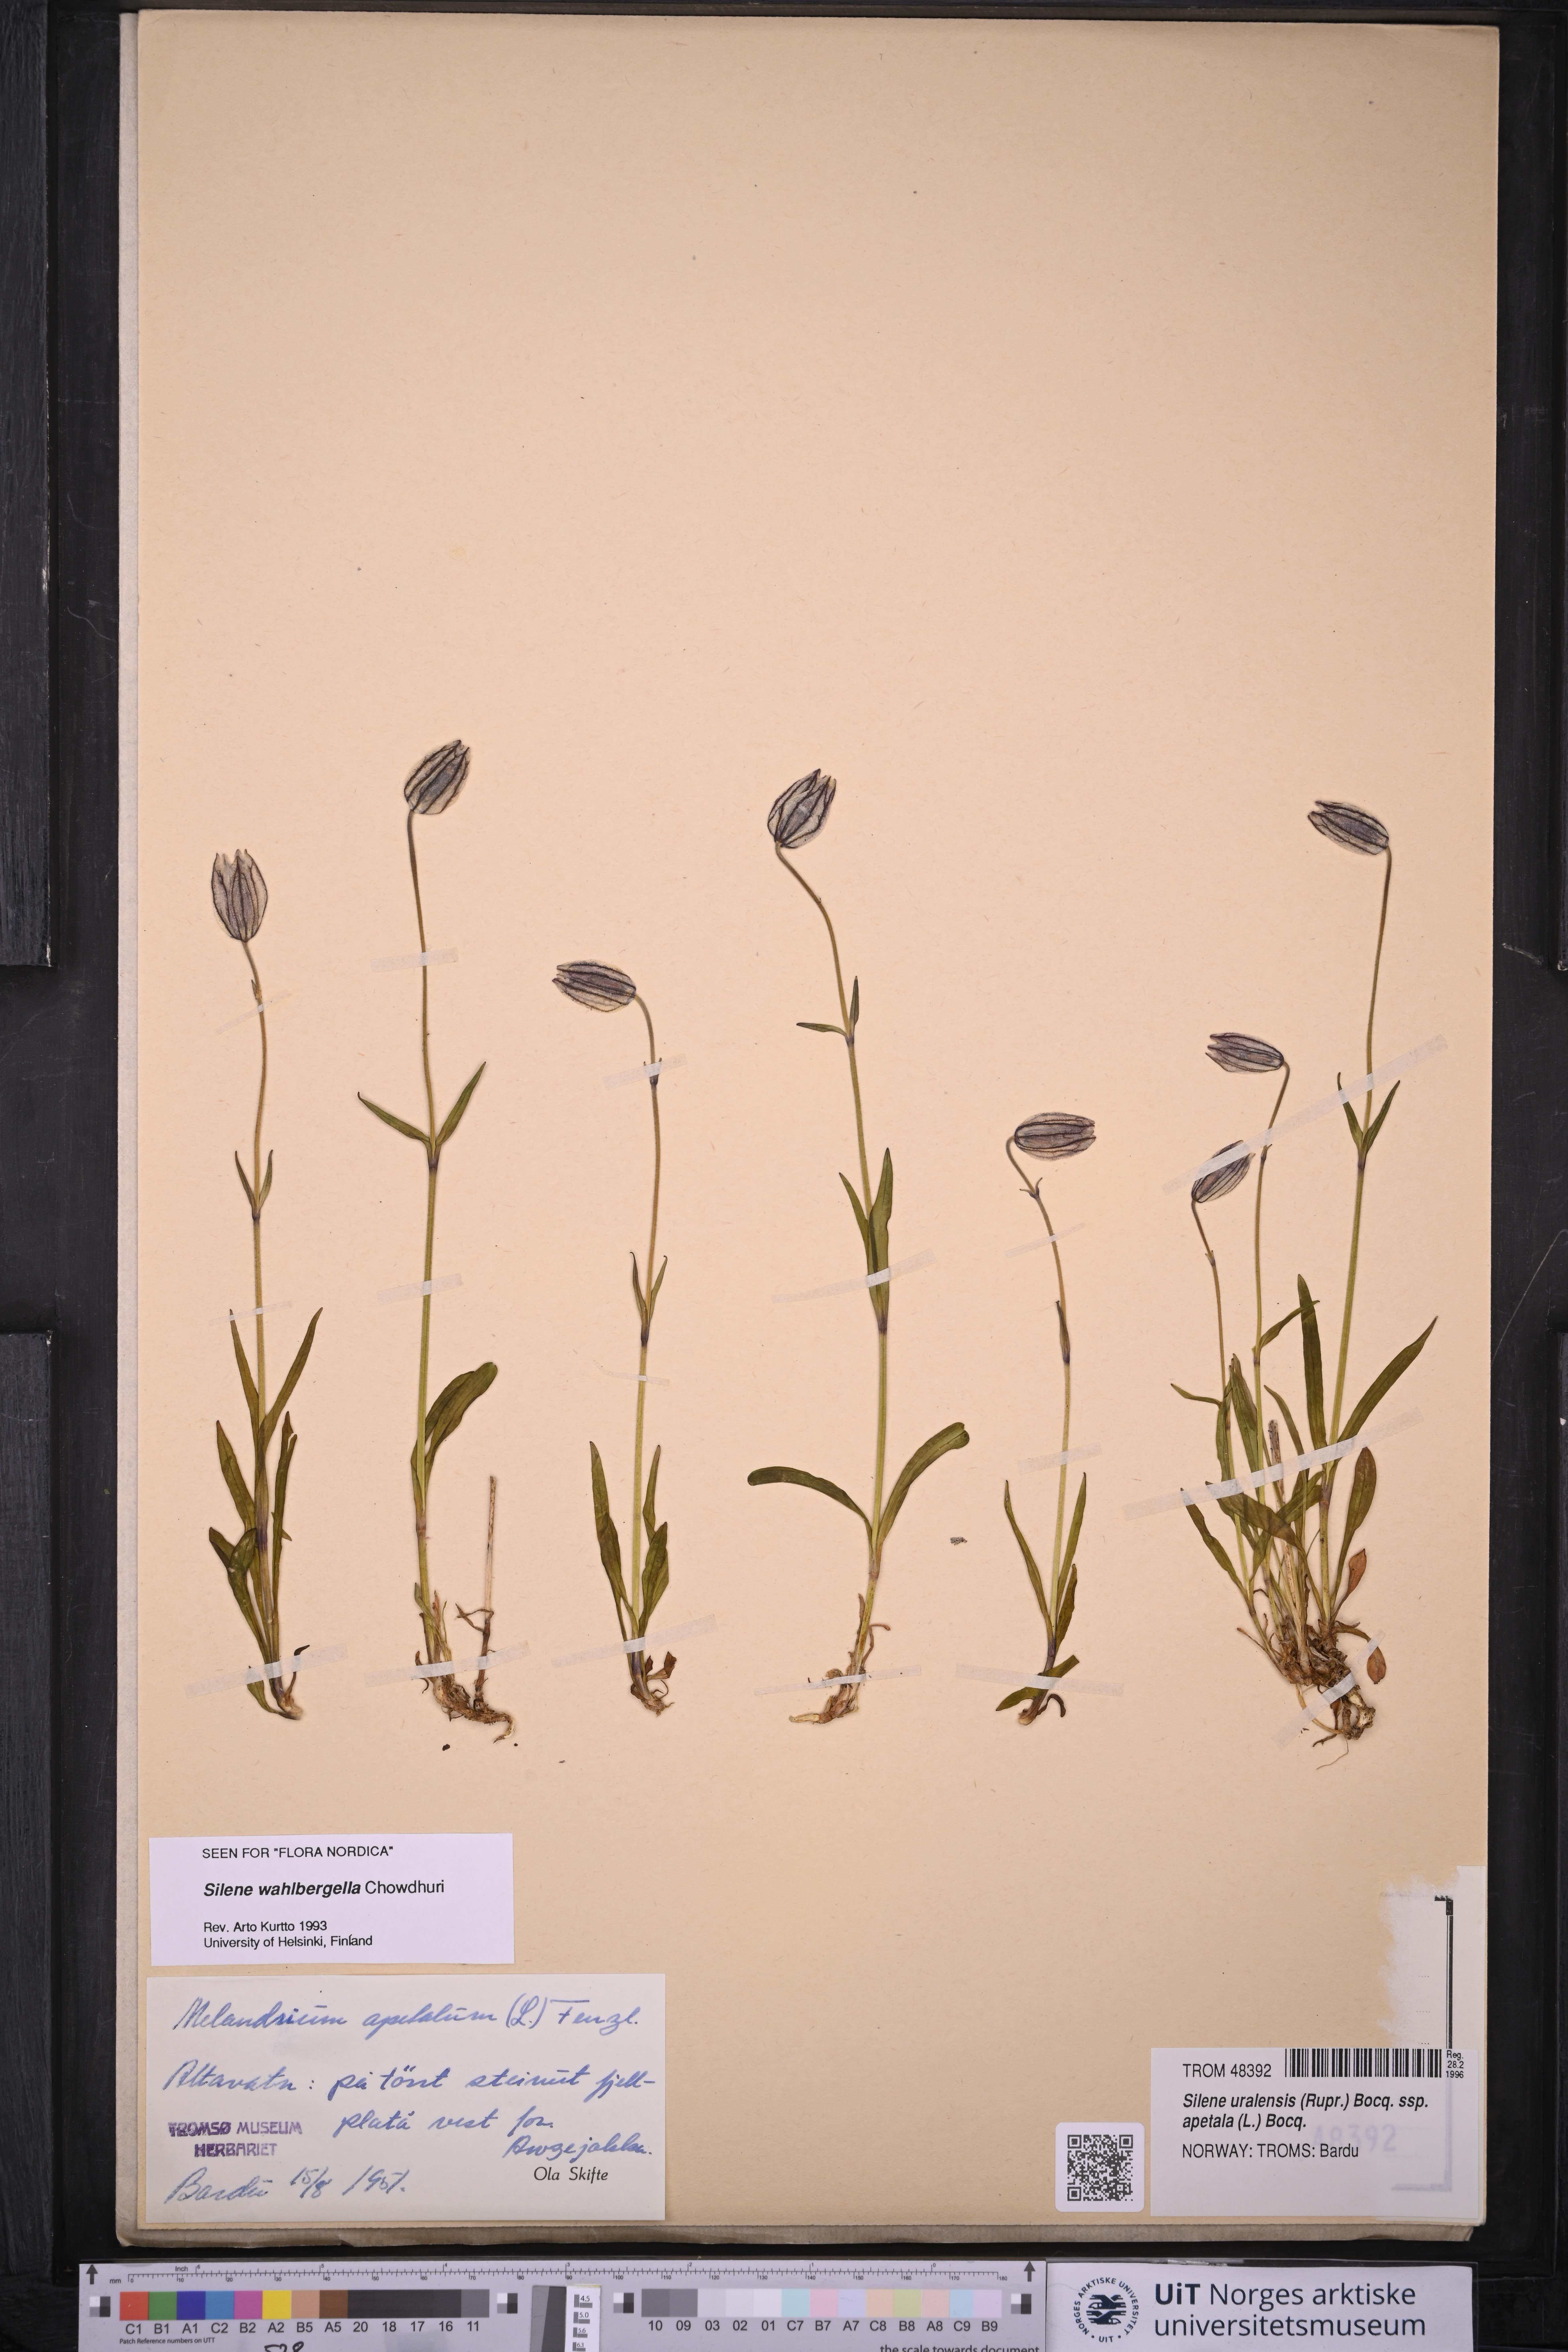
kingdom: Plantae
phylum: Tracheophyta
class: Magnoliopsida
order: Caryophyllales
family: Caryophyllaceae
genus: Silene
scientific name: Silene wahlbergella
